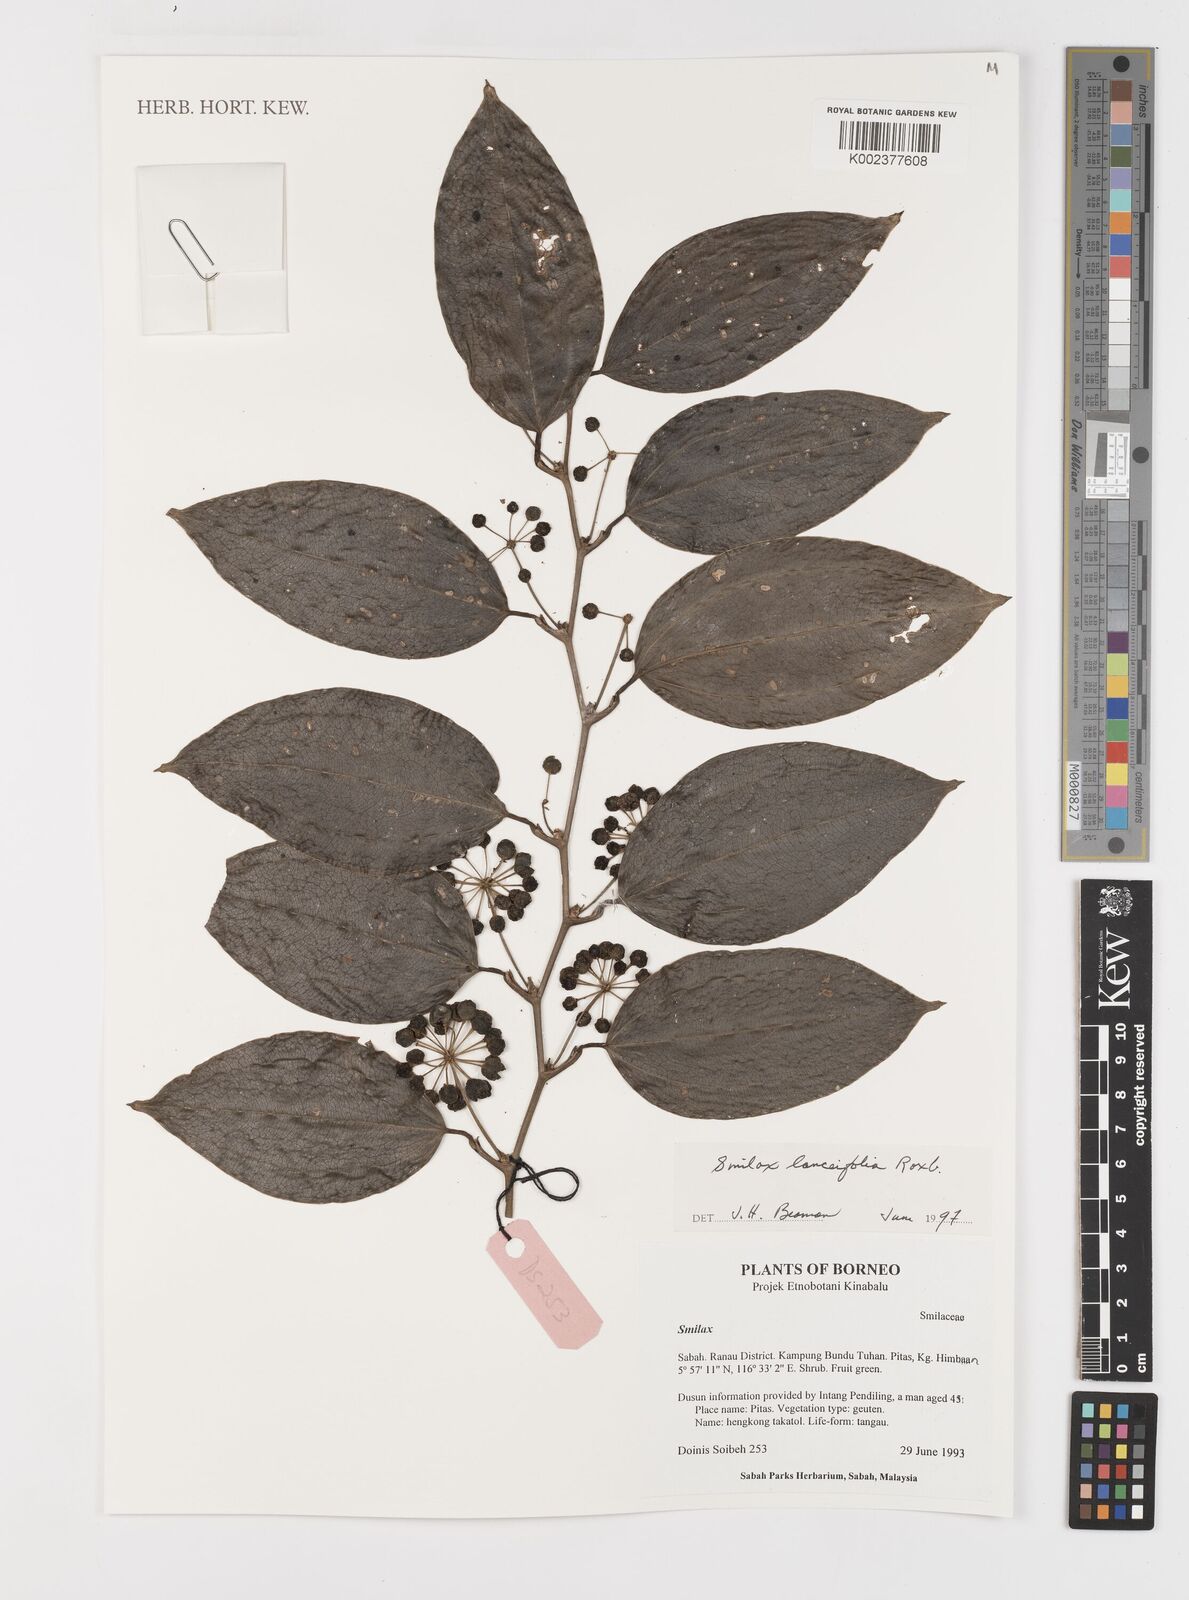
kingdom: Plantae
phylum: Tracheophyta
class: Liliopsida
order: Liliales
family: Smilacaceae
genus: Smilax
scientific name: Smilax lanceifolia
